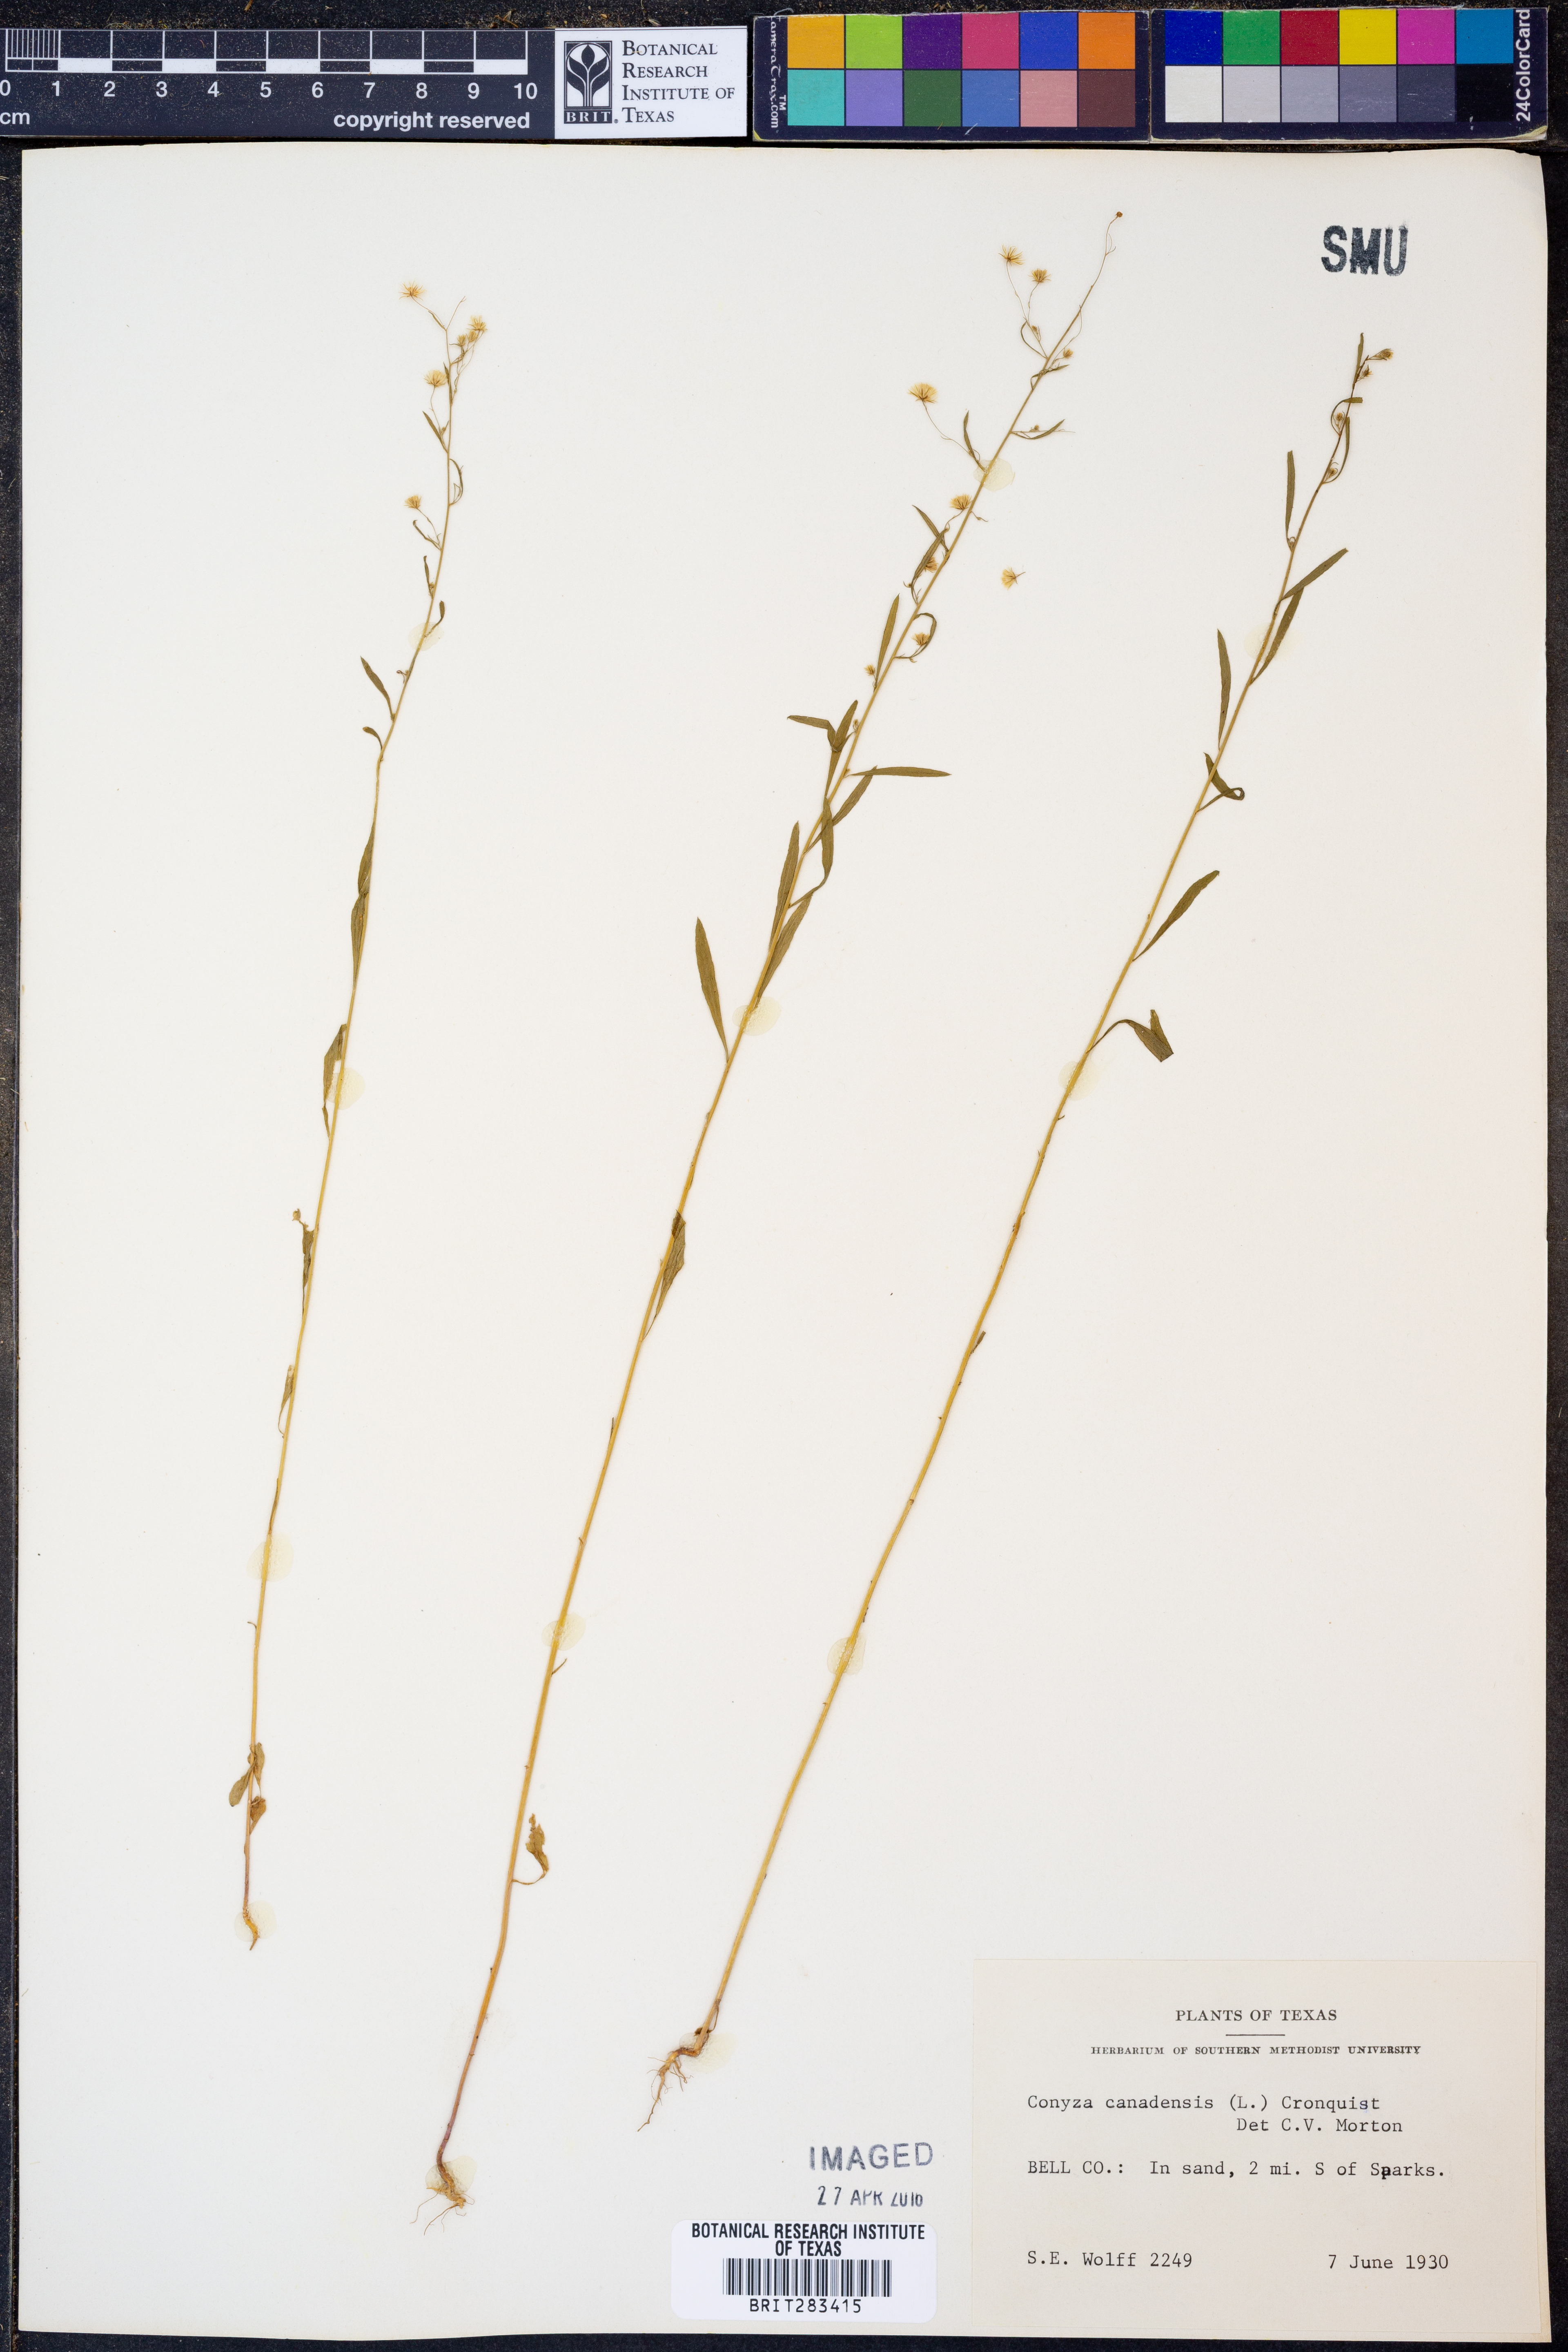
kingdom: Plantae
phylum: Tracheophyta
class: Magnoliopsida
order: Asterales
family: Asteraceae
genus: Erigeron
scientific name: Erigeron canadensis
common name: Canadian fleabane
